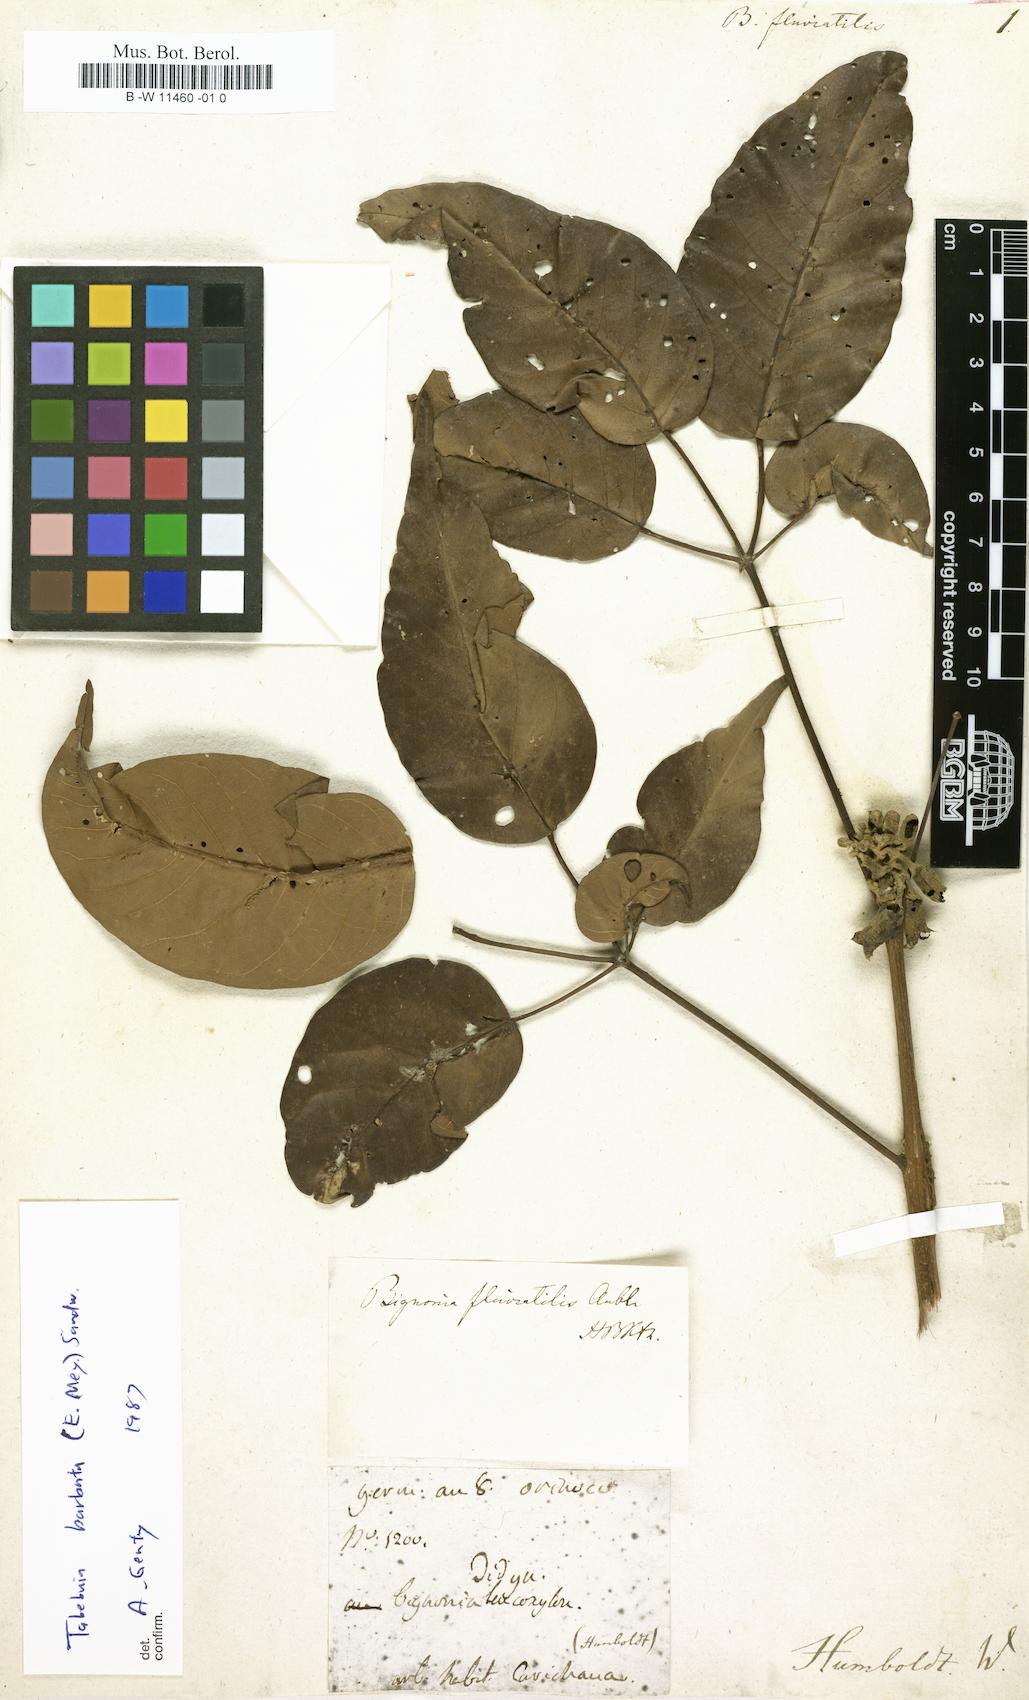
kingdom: Plantae
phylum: Tracheophyta
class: Magnoliopsida
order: Lamiales
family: Bignoniaceae
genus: Bignonia
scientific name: Bignonia fluviatilis
